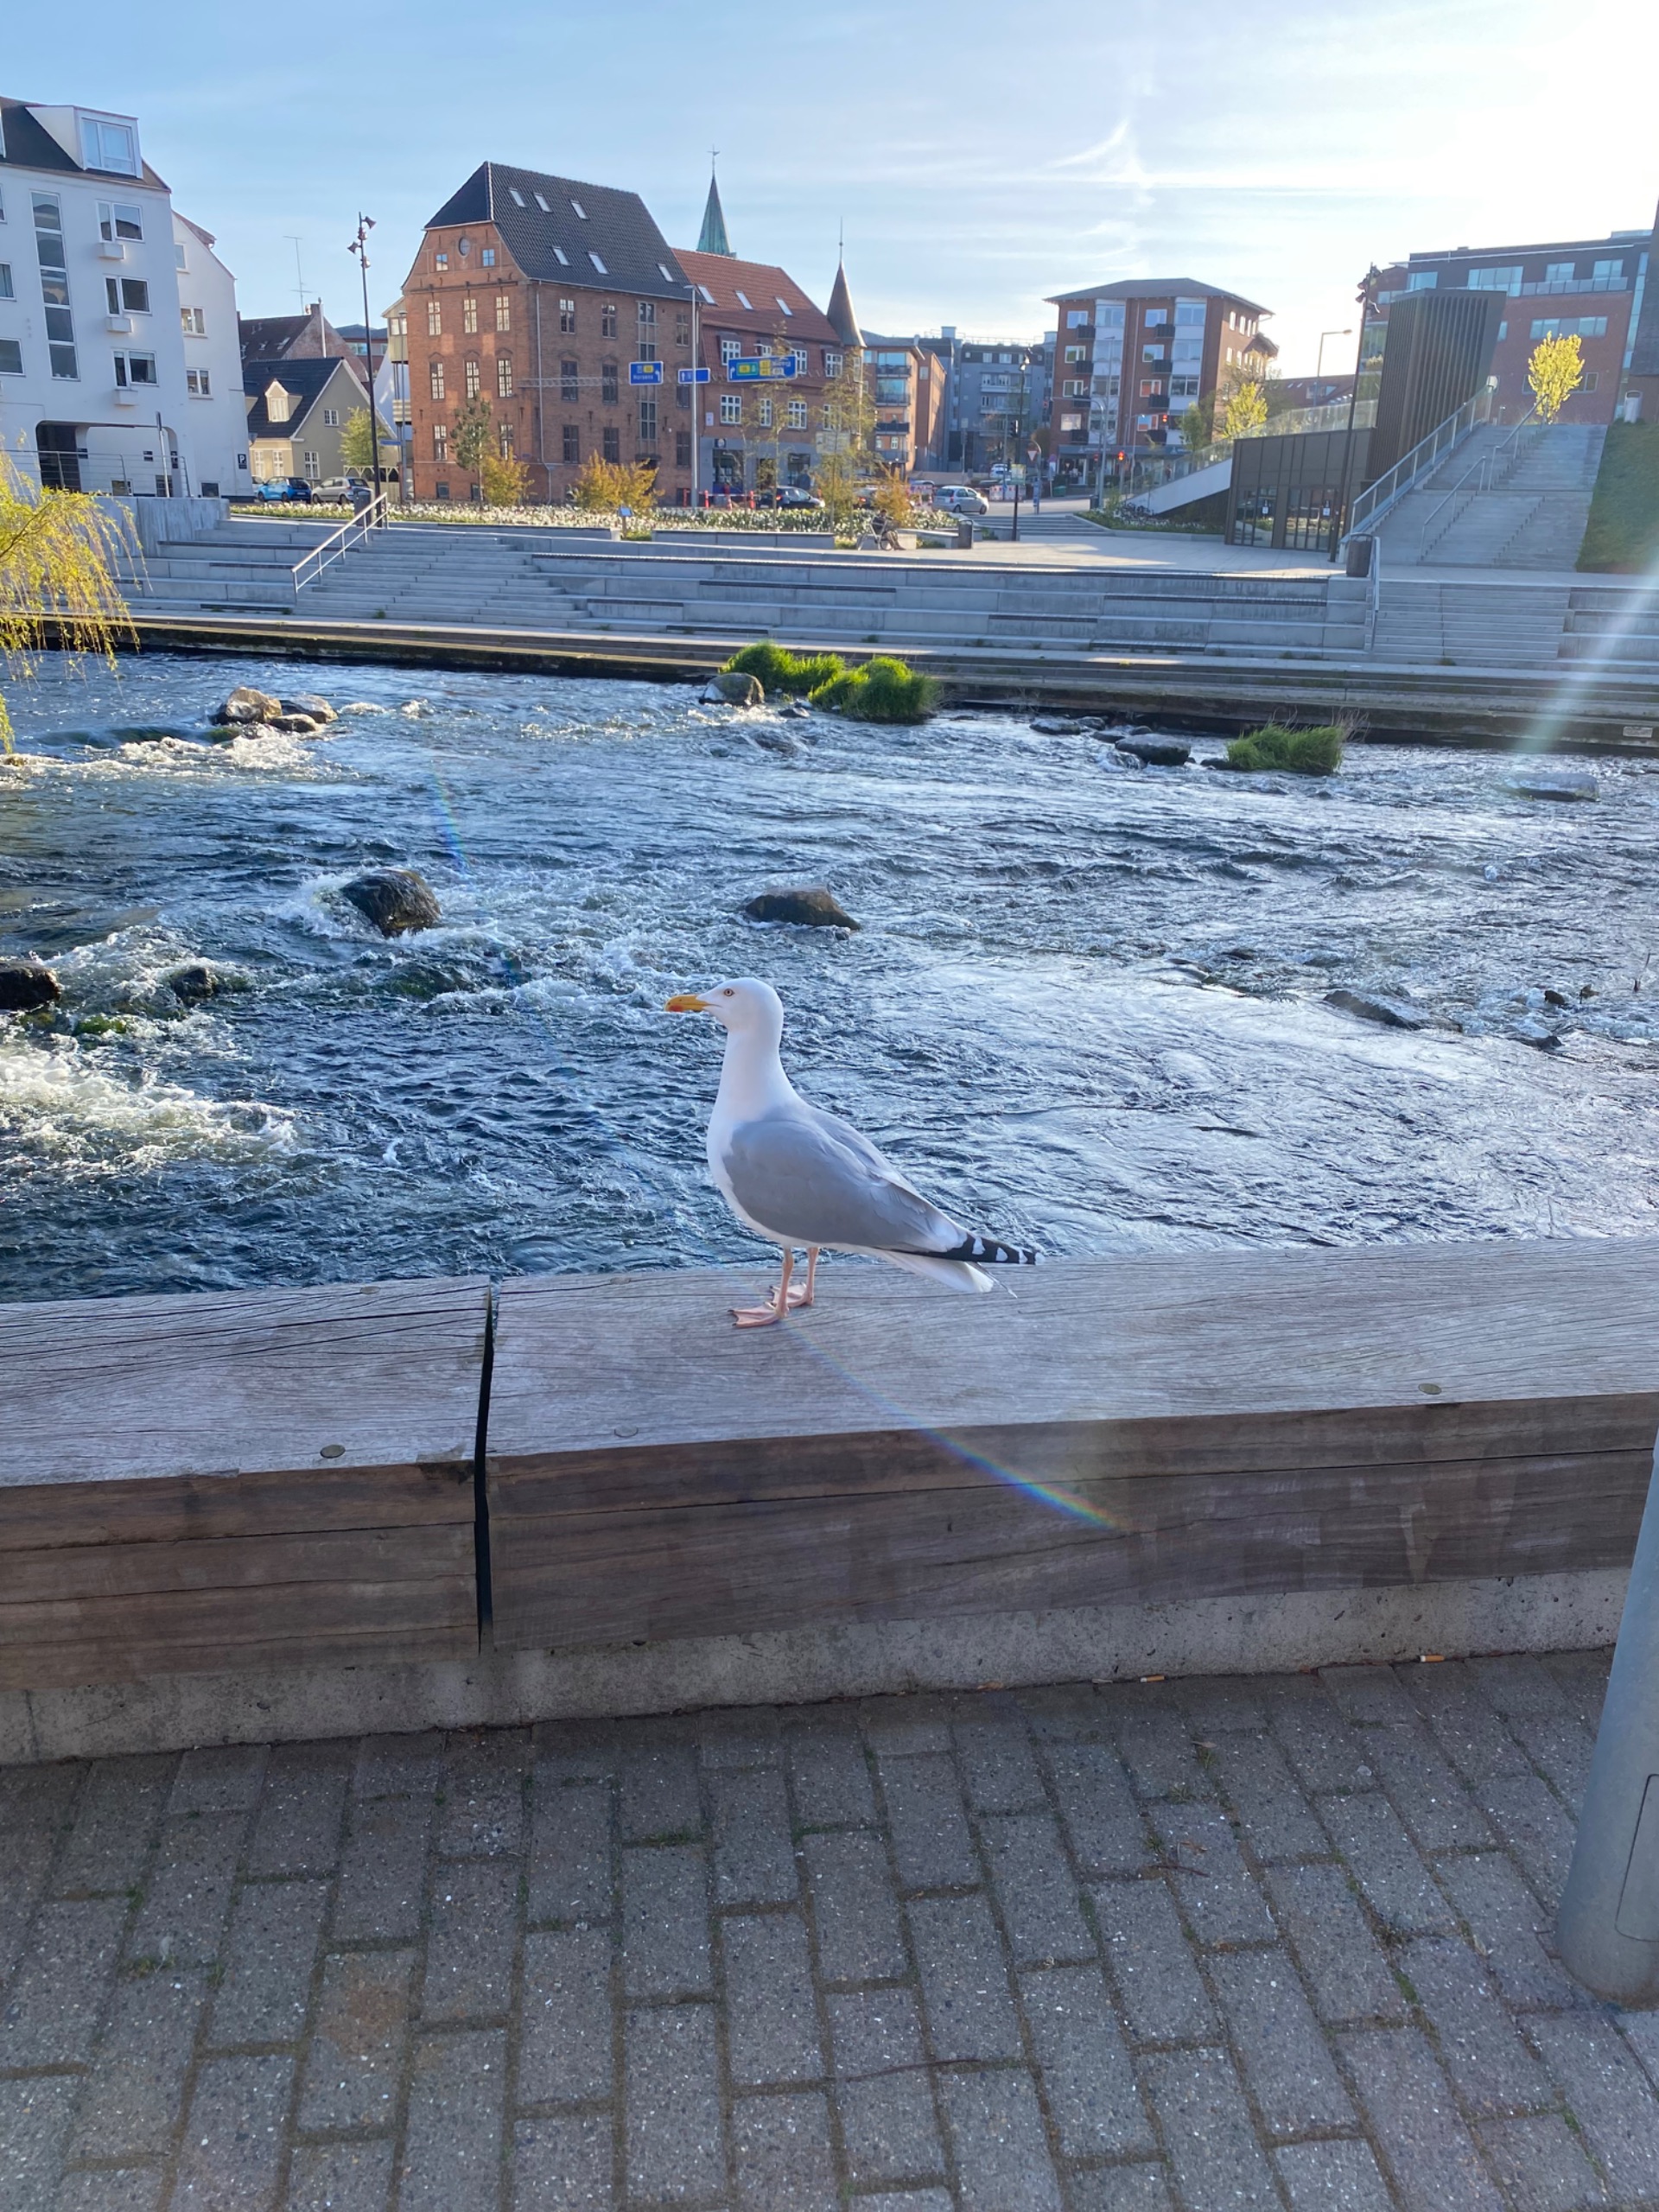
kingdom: Animalia
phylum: Chordata
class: Aves
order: Charadriiformes
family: Laridae
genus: Larus
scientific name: Larus argentatus
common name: Sølvmåge
